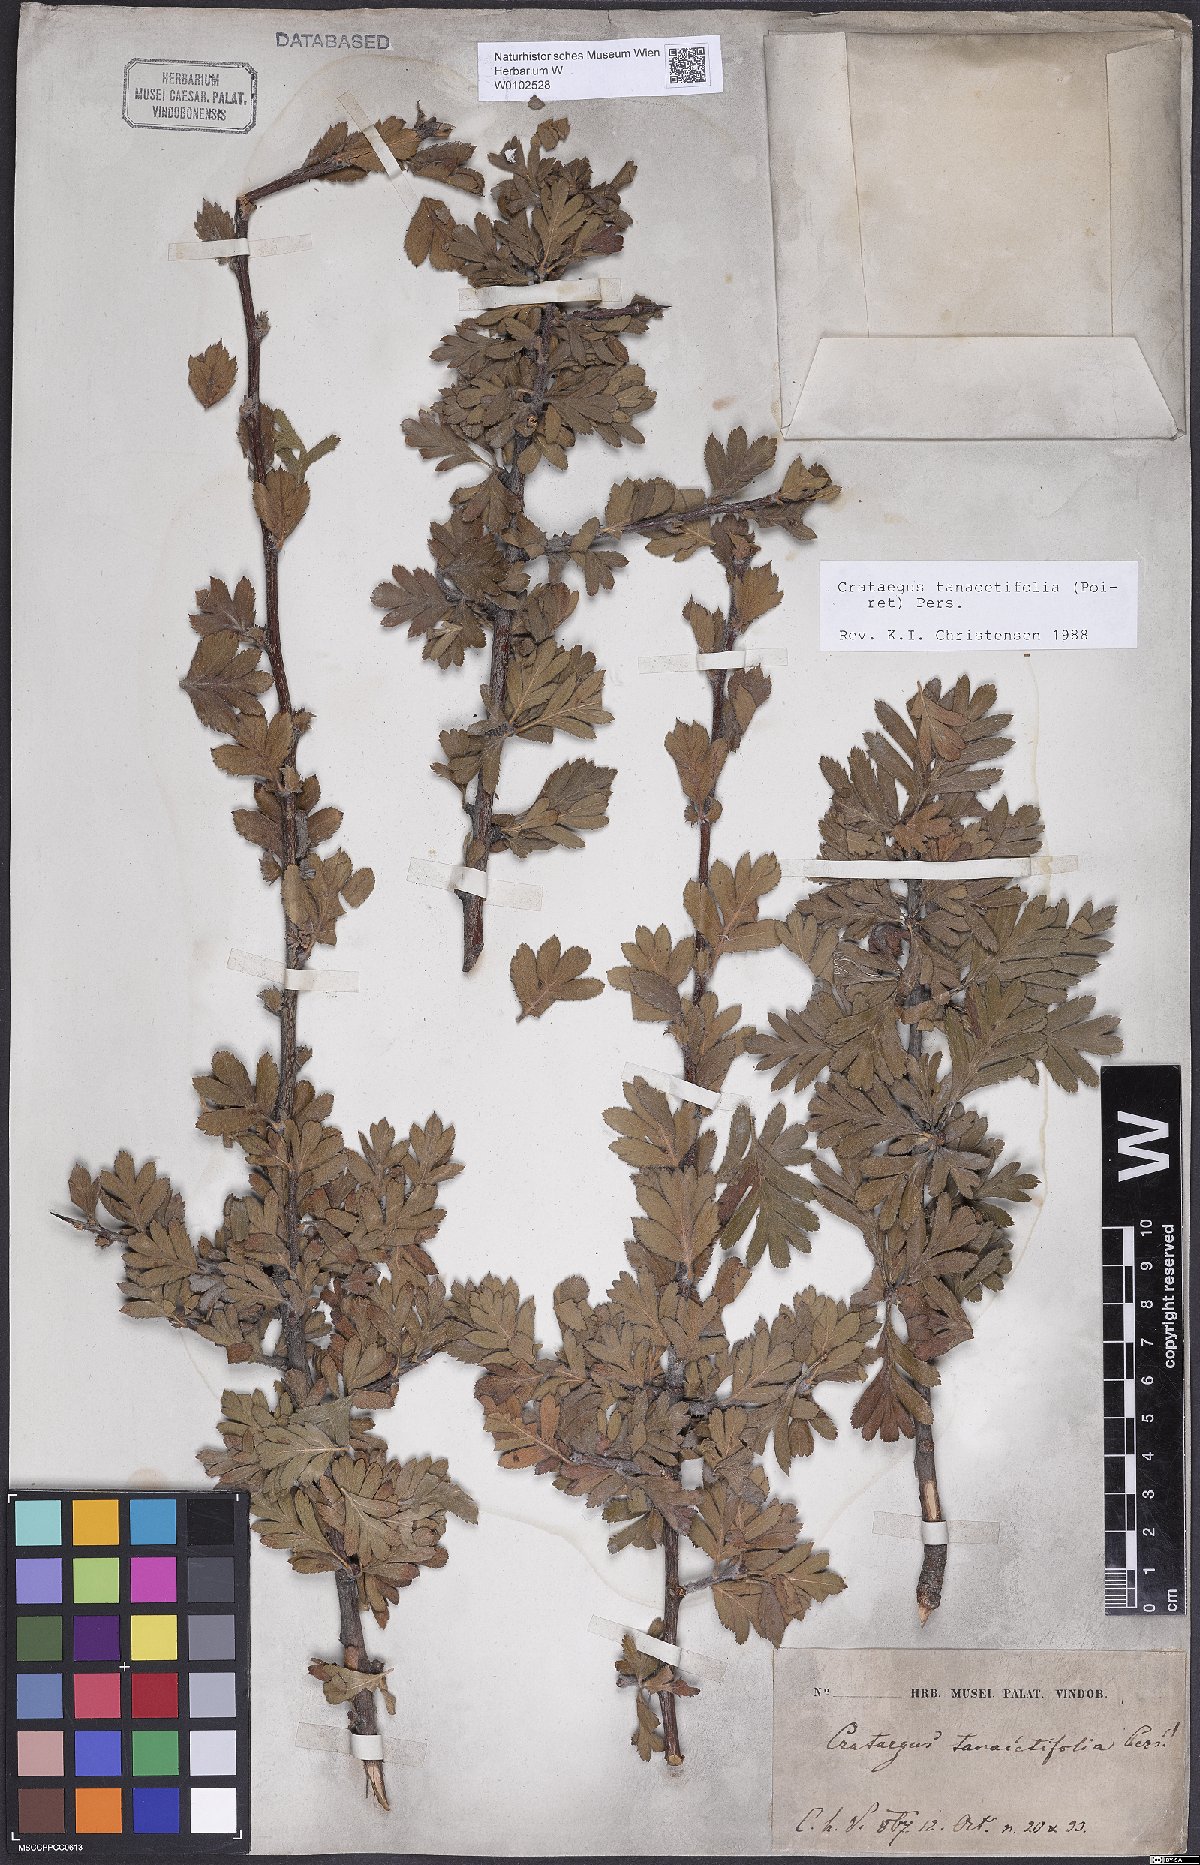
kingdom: Plantae
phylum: Tracheophyta
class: Magnoliopsida
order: Rosales
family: Rosaceae
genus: Crataegus
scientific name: Crataegus tanacetifolia
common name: Tansy-leaved thorn
